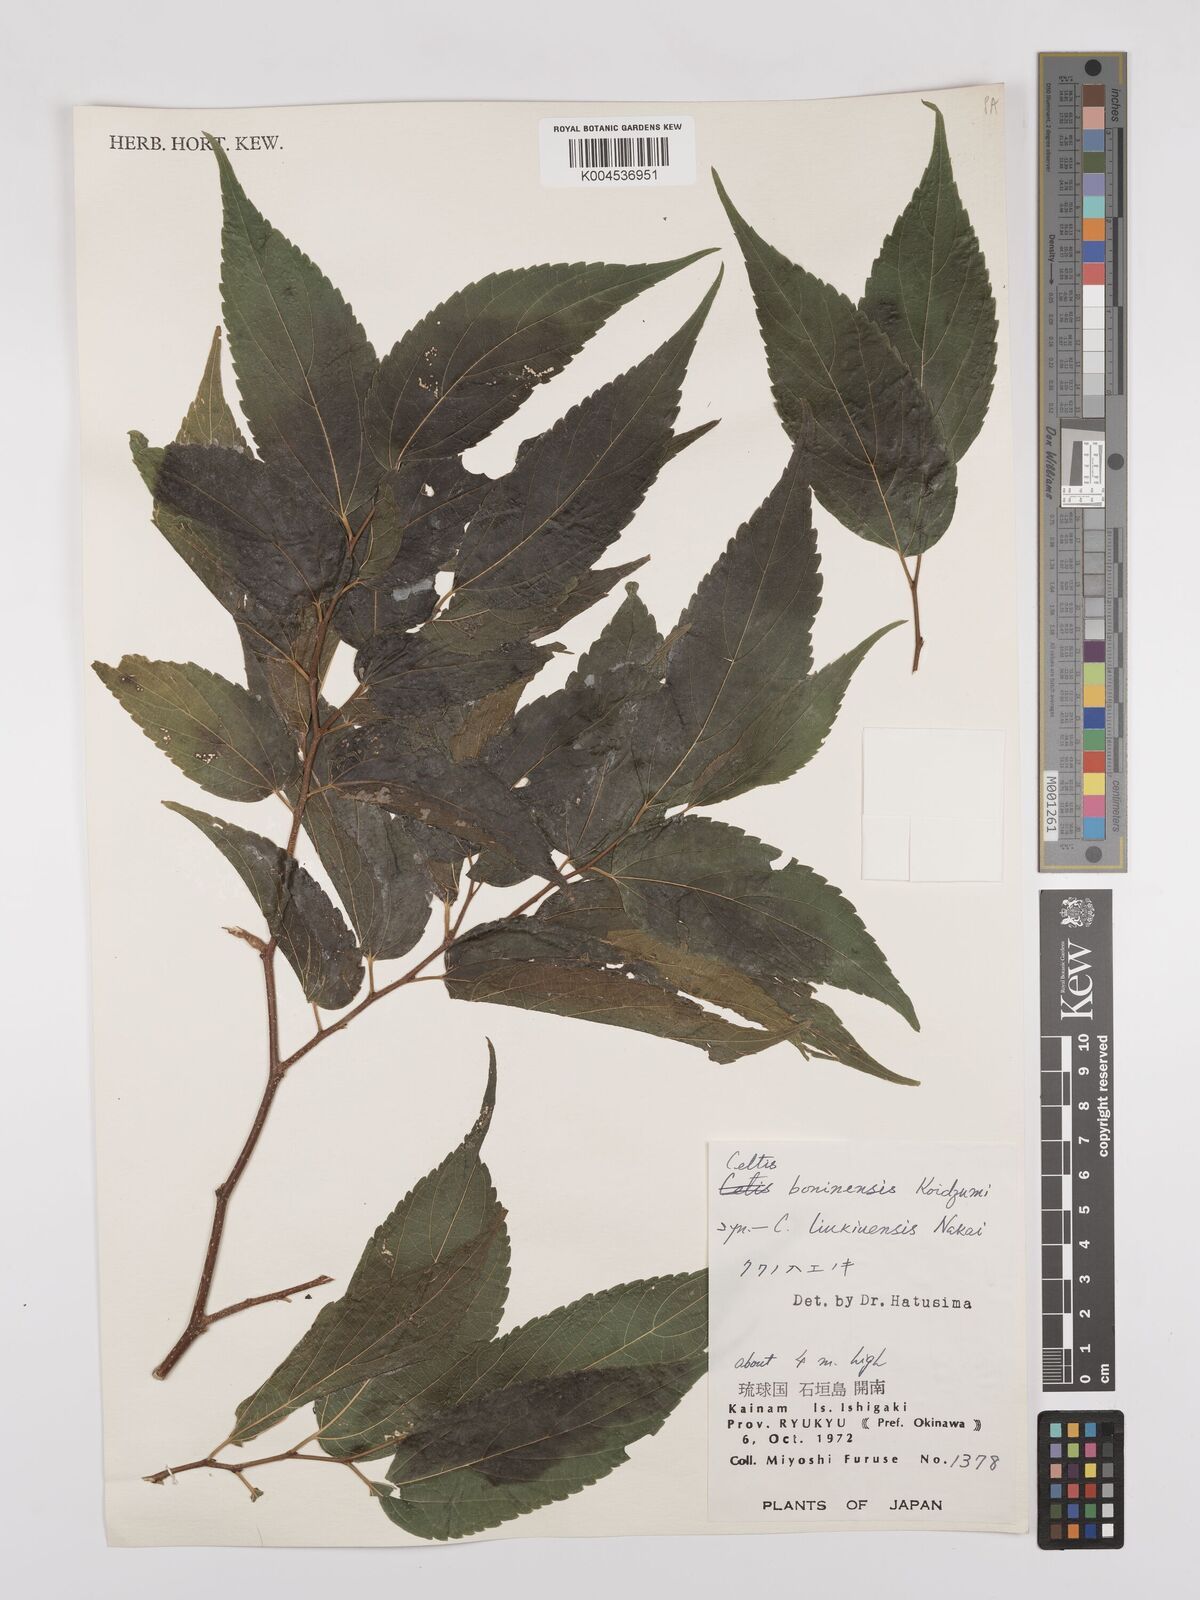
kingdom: Plantae
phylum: Tracheophyta
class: Magnoliopsida
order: Rosales
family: Cannabaceae
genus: Celtis
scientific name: Celtis boninensis
